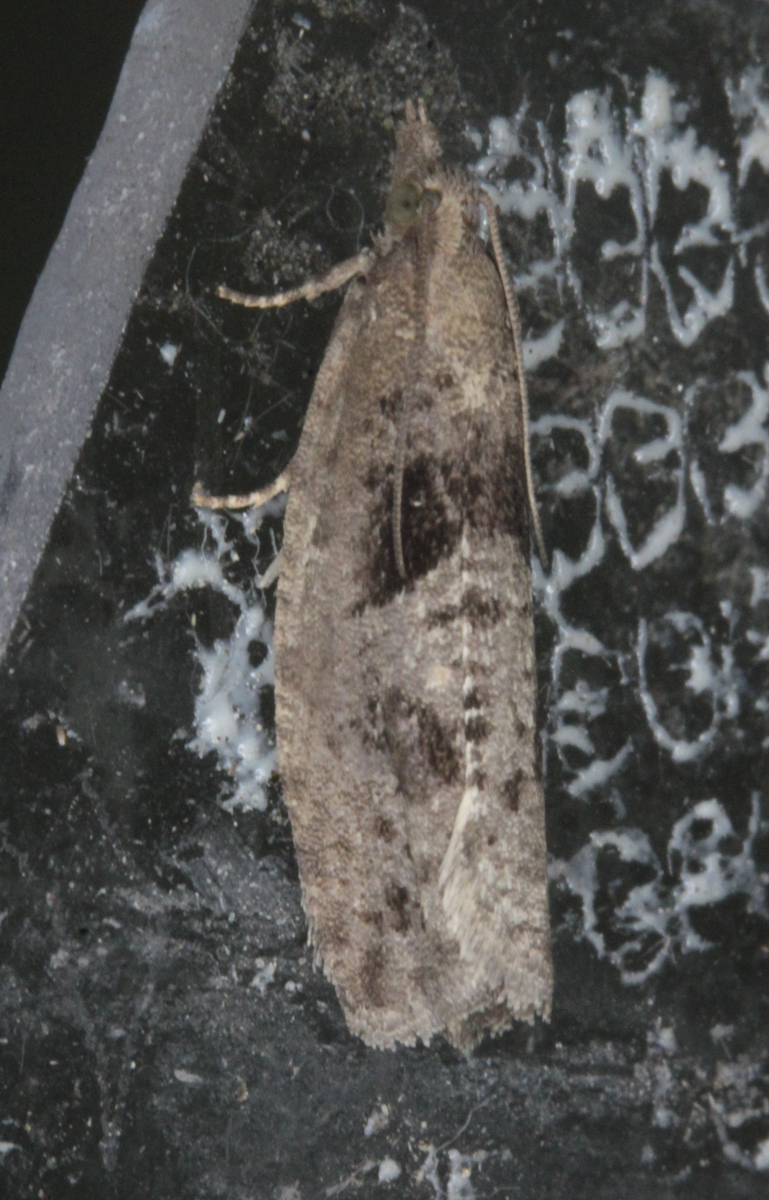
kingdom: Animalia
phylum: Arthropoda
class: Insecta
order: Lepidoptera
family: Tortricidae
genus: Epinotia
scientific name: Epinotia brunnichana
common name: Large birch bell
